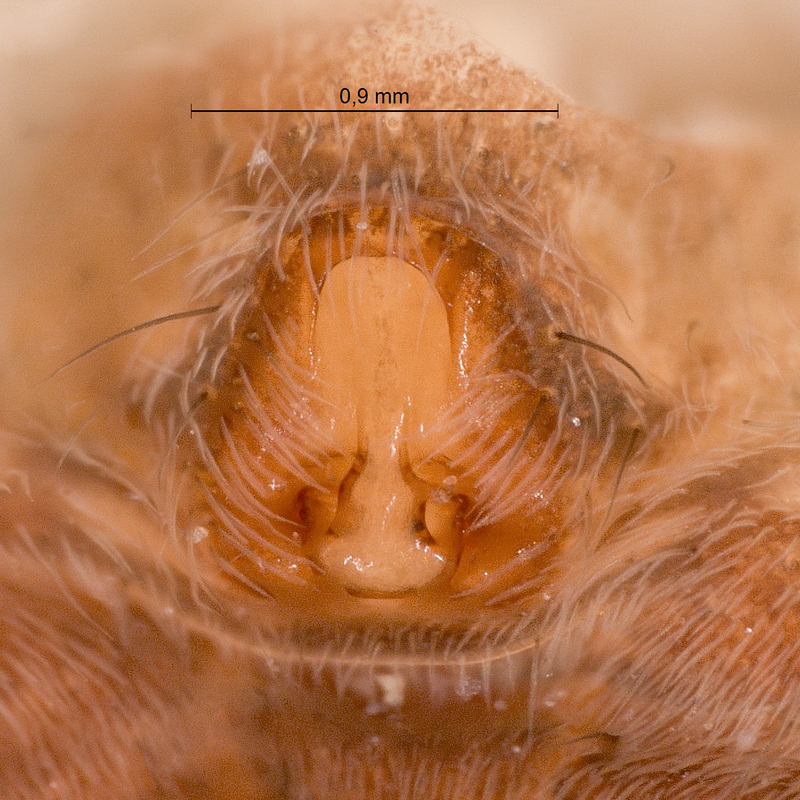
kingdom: Animalia
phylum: Arthropoda
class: Arachnida
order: Araneae
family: Lycosidae
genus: Pardosa
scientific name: Pardosa hortensis
